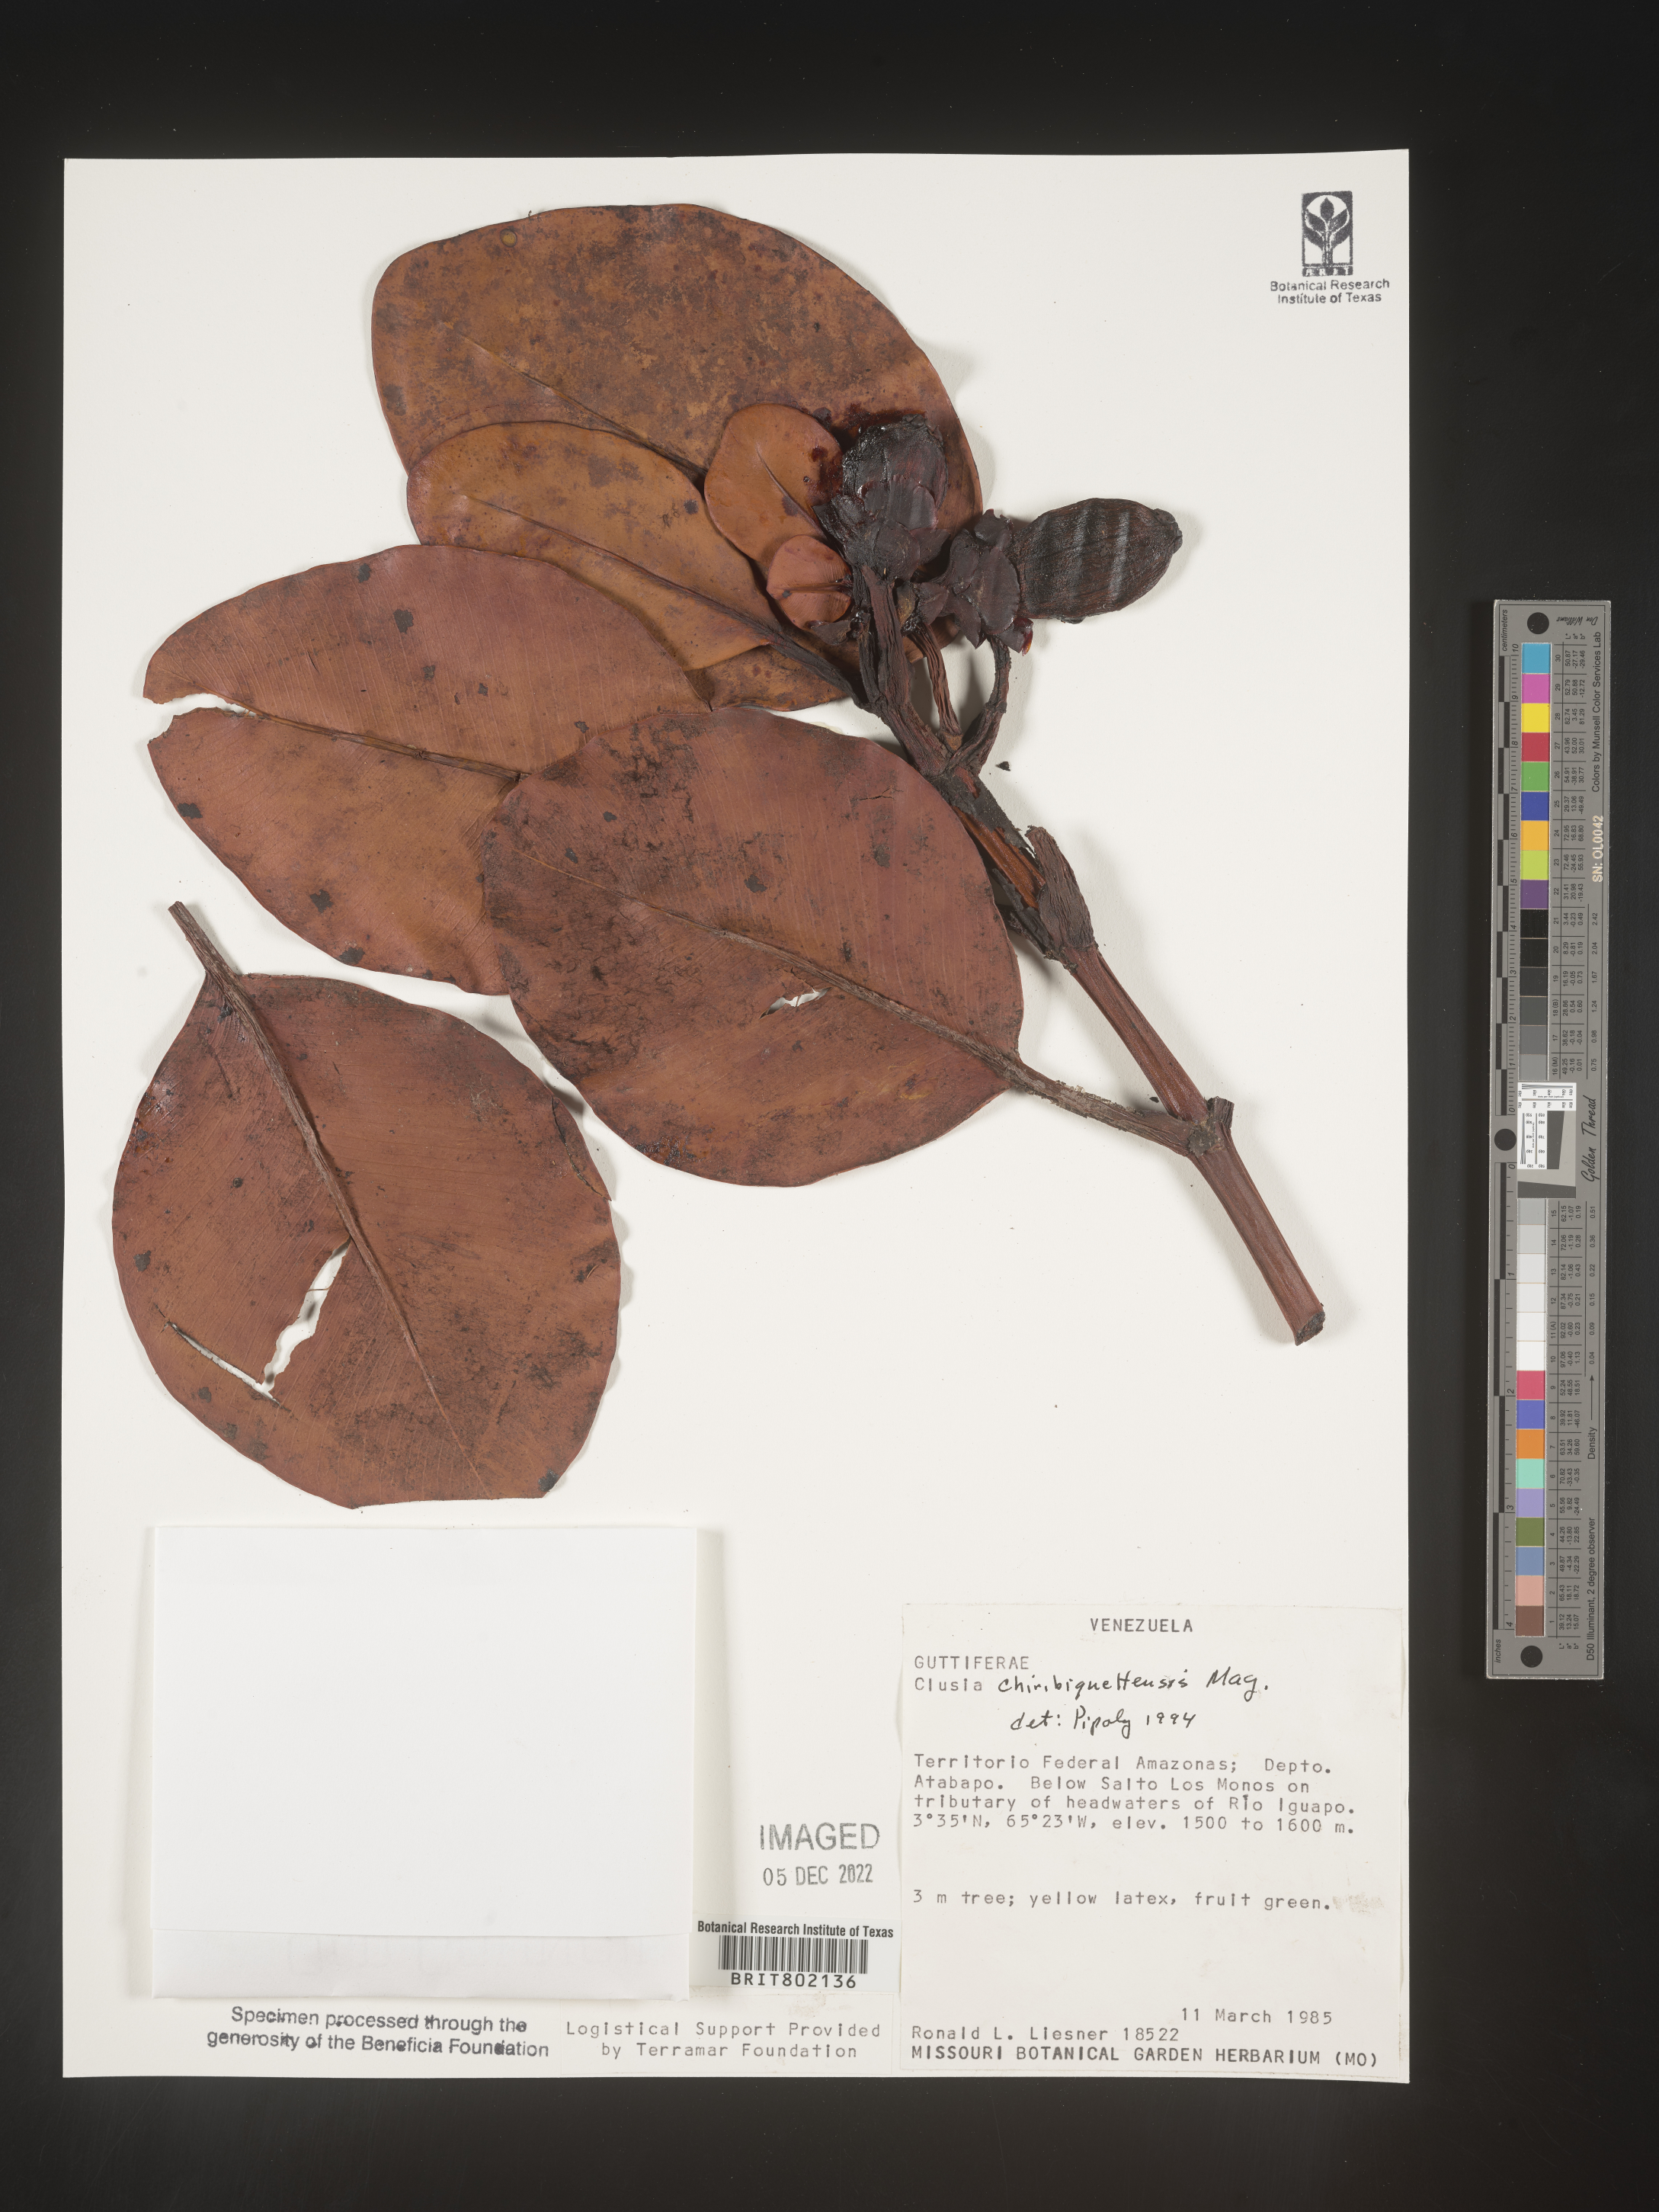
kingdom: Plantae
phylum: Tracheophyta
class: Magnoliopsida
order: Malpighiales
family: Clusiaceae
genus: Clusia
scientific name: Clusia
